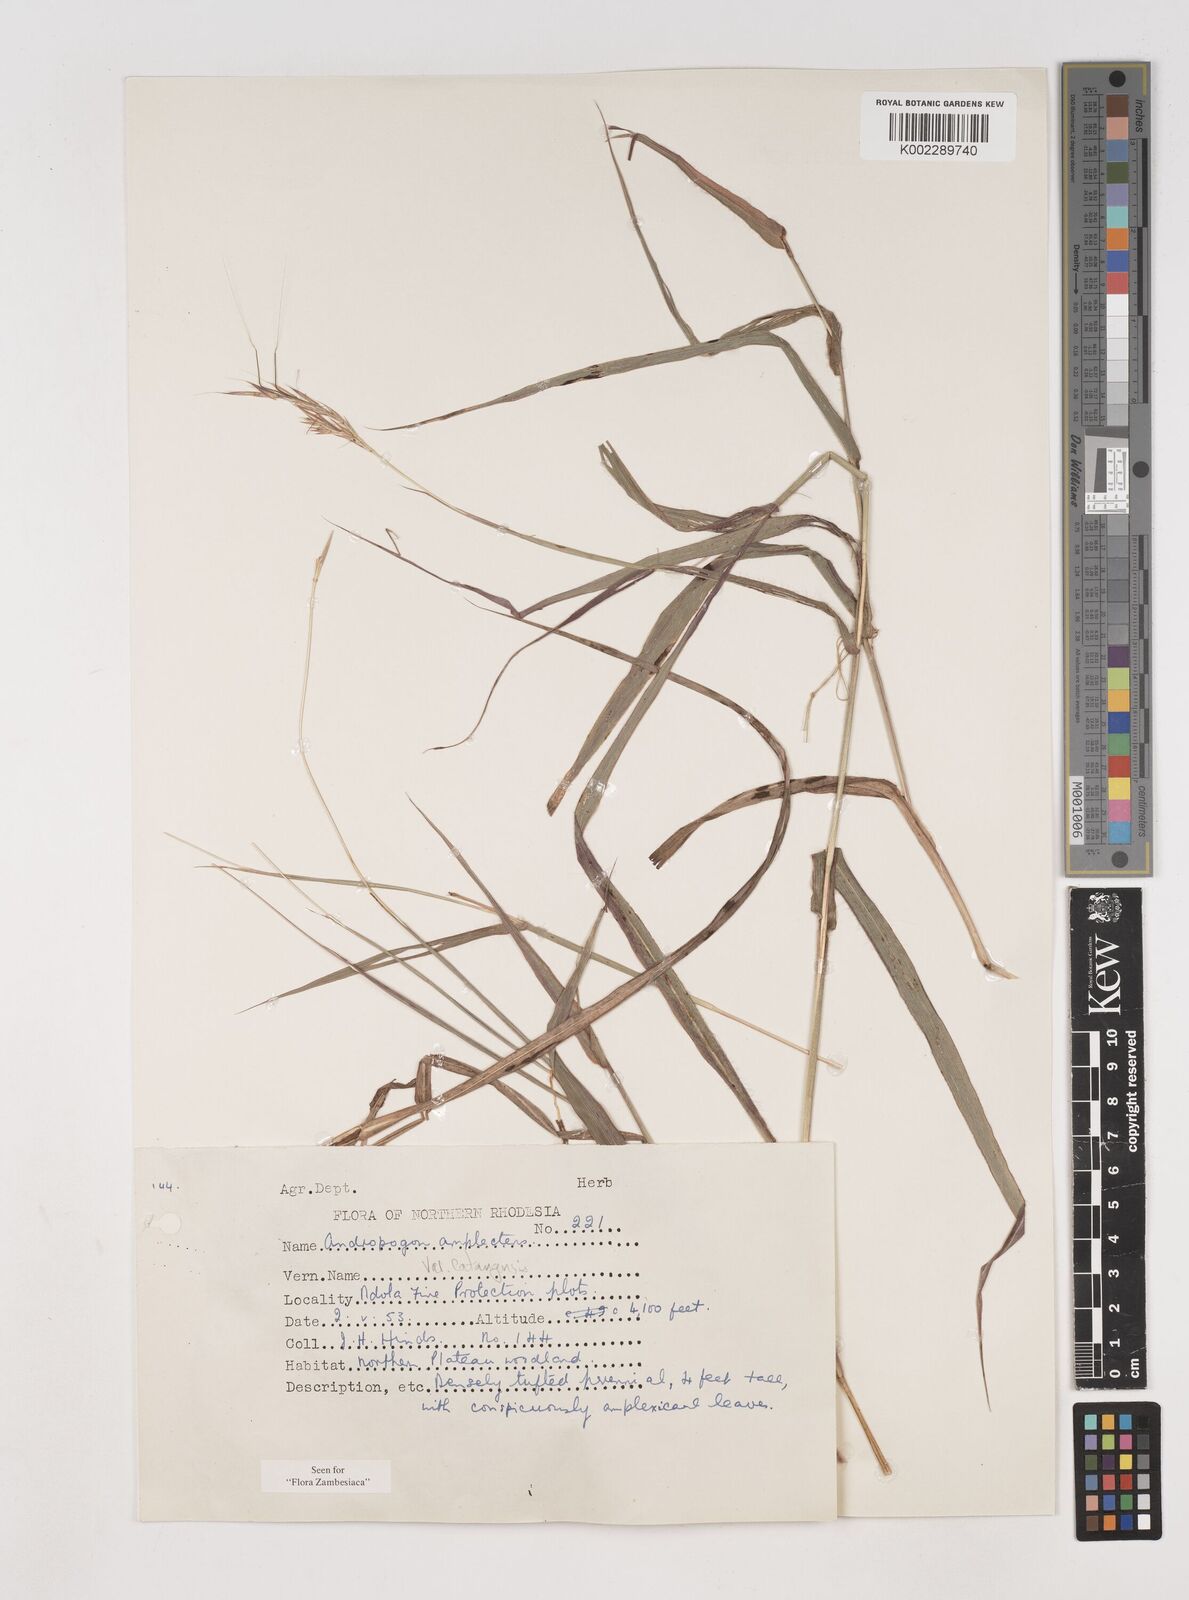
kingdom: Plantae
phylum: Tracheophyta
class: Liliopsida
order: Poales
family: Poaceae
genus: Diheteropogon
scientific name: Diheteropogon amplectens
